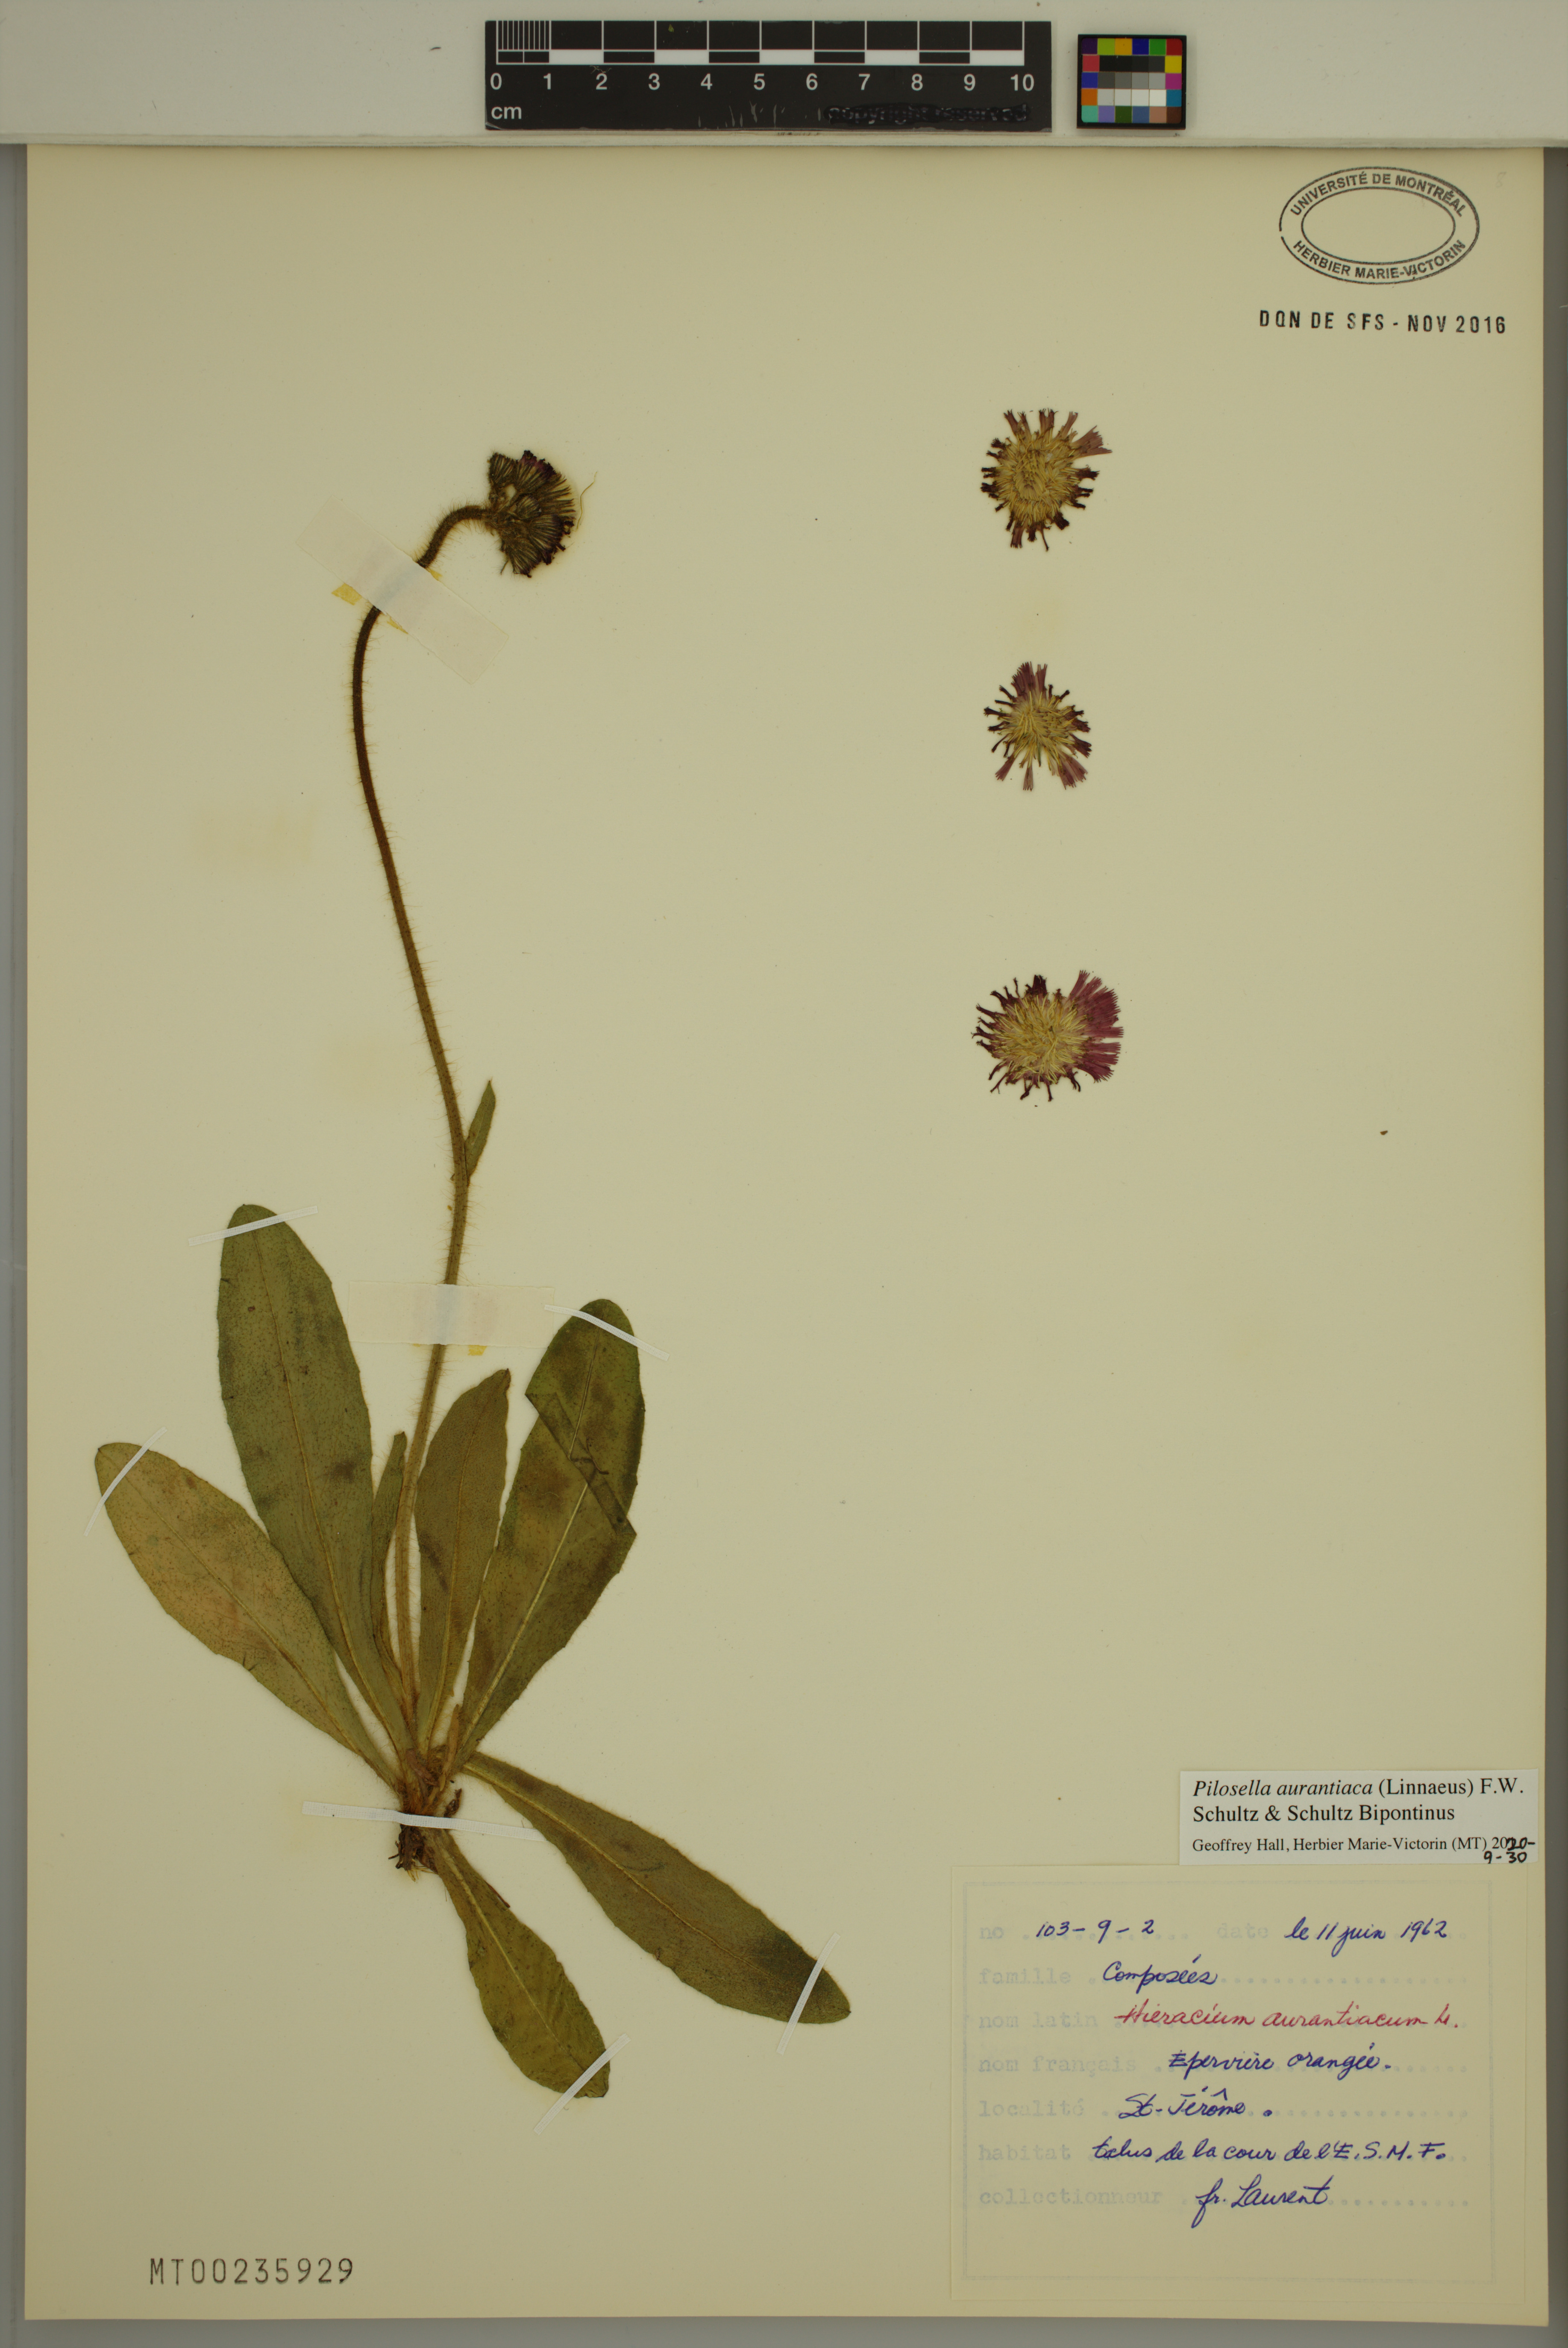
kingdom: Plantae
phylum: Tracheophyta
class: Magnoliopsida
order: Asterales
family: Asteraceae
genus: Pilosella
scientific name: Pilosella aurantiaca
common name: Fox-and-cubs
